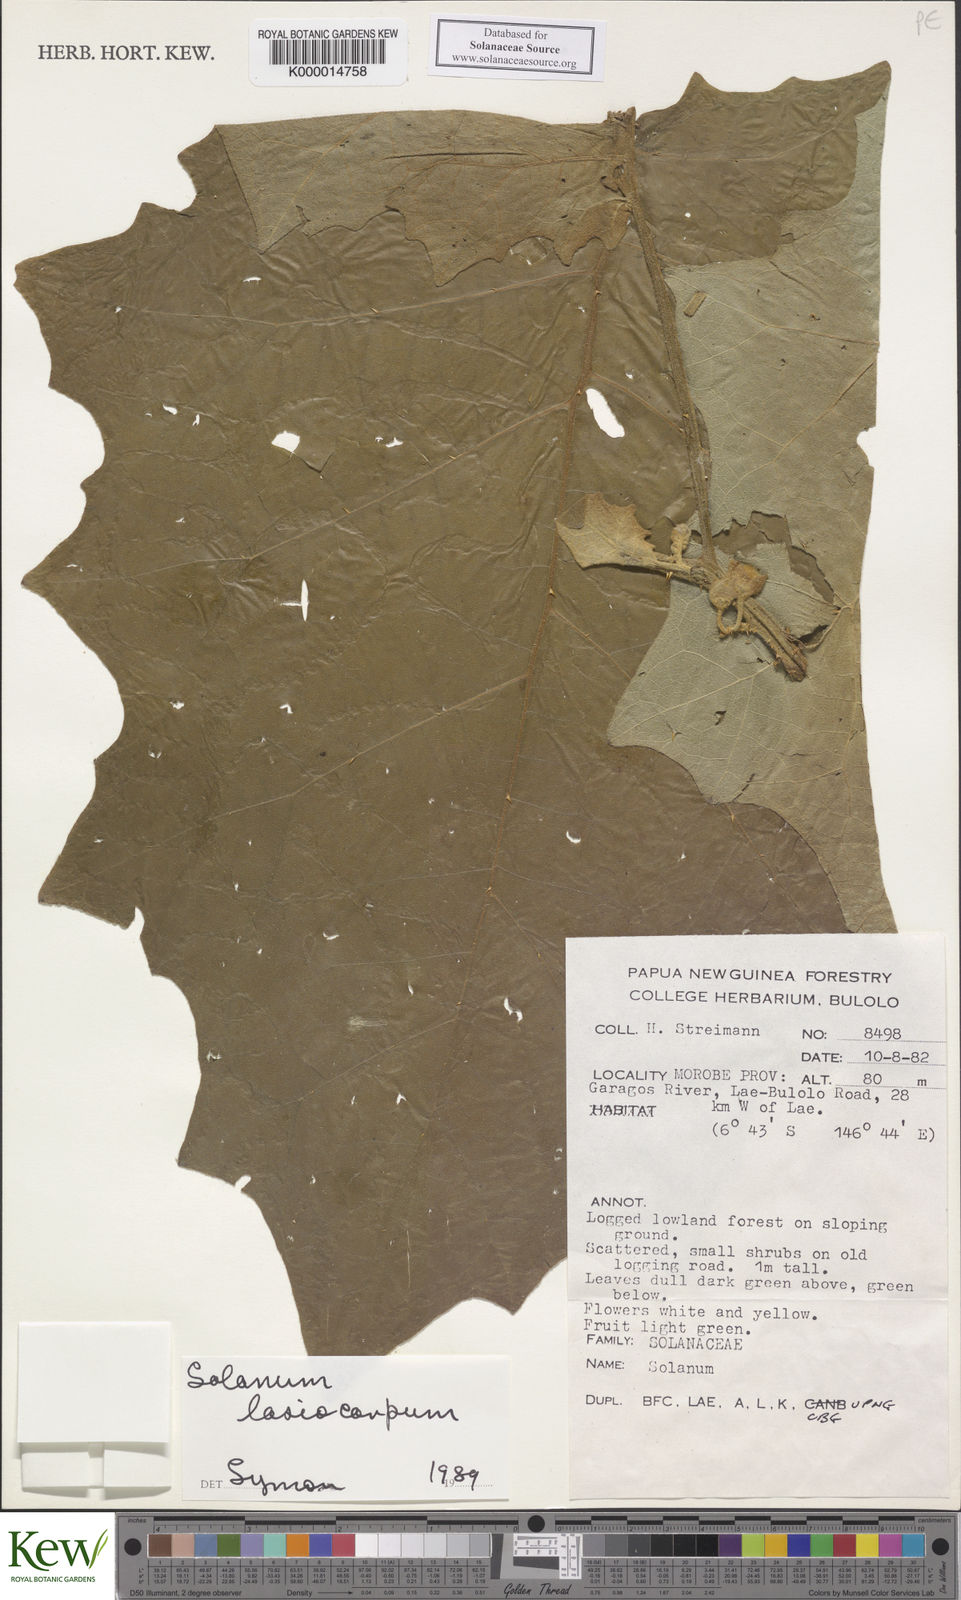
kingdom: Plantae
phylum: Tracheophyta
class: Magnoliopsida
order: Solanales
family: Solanaceae
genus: Solanum
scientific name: Solanum lasiocarpum
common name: Indian nightshade
